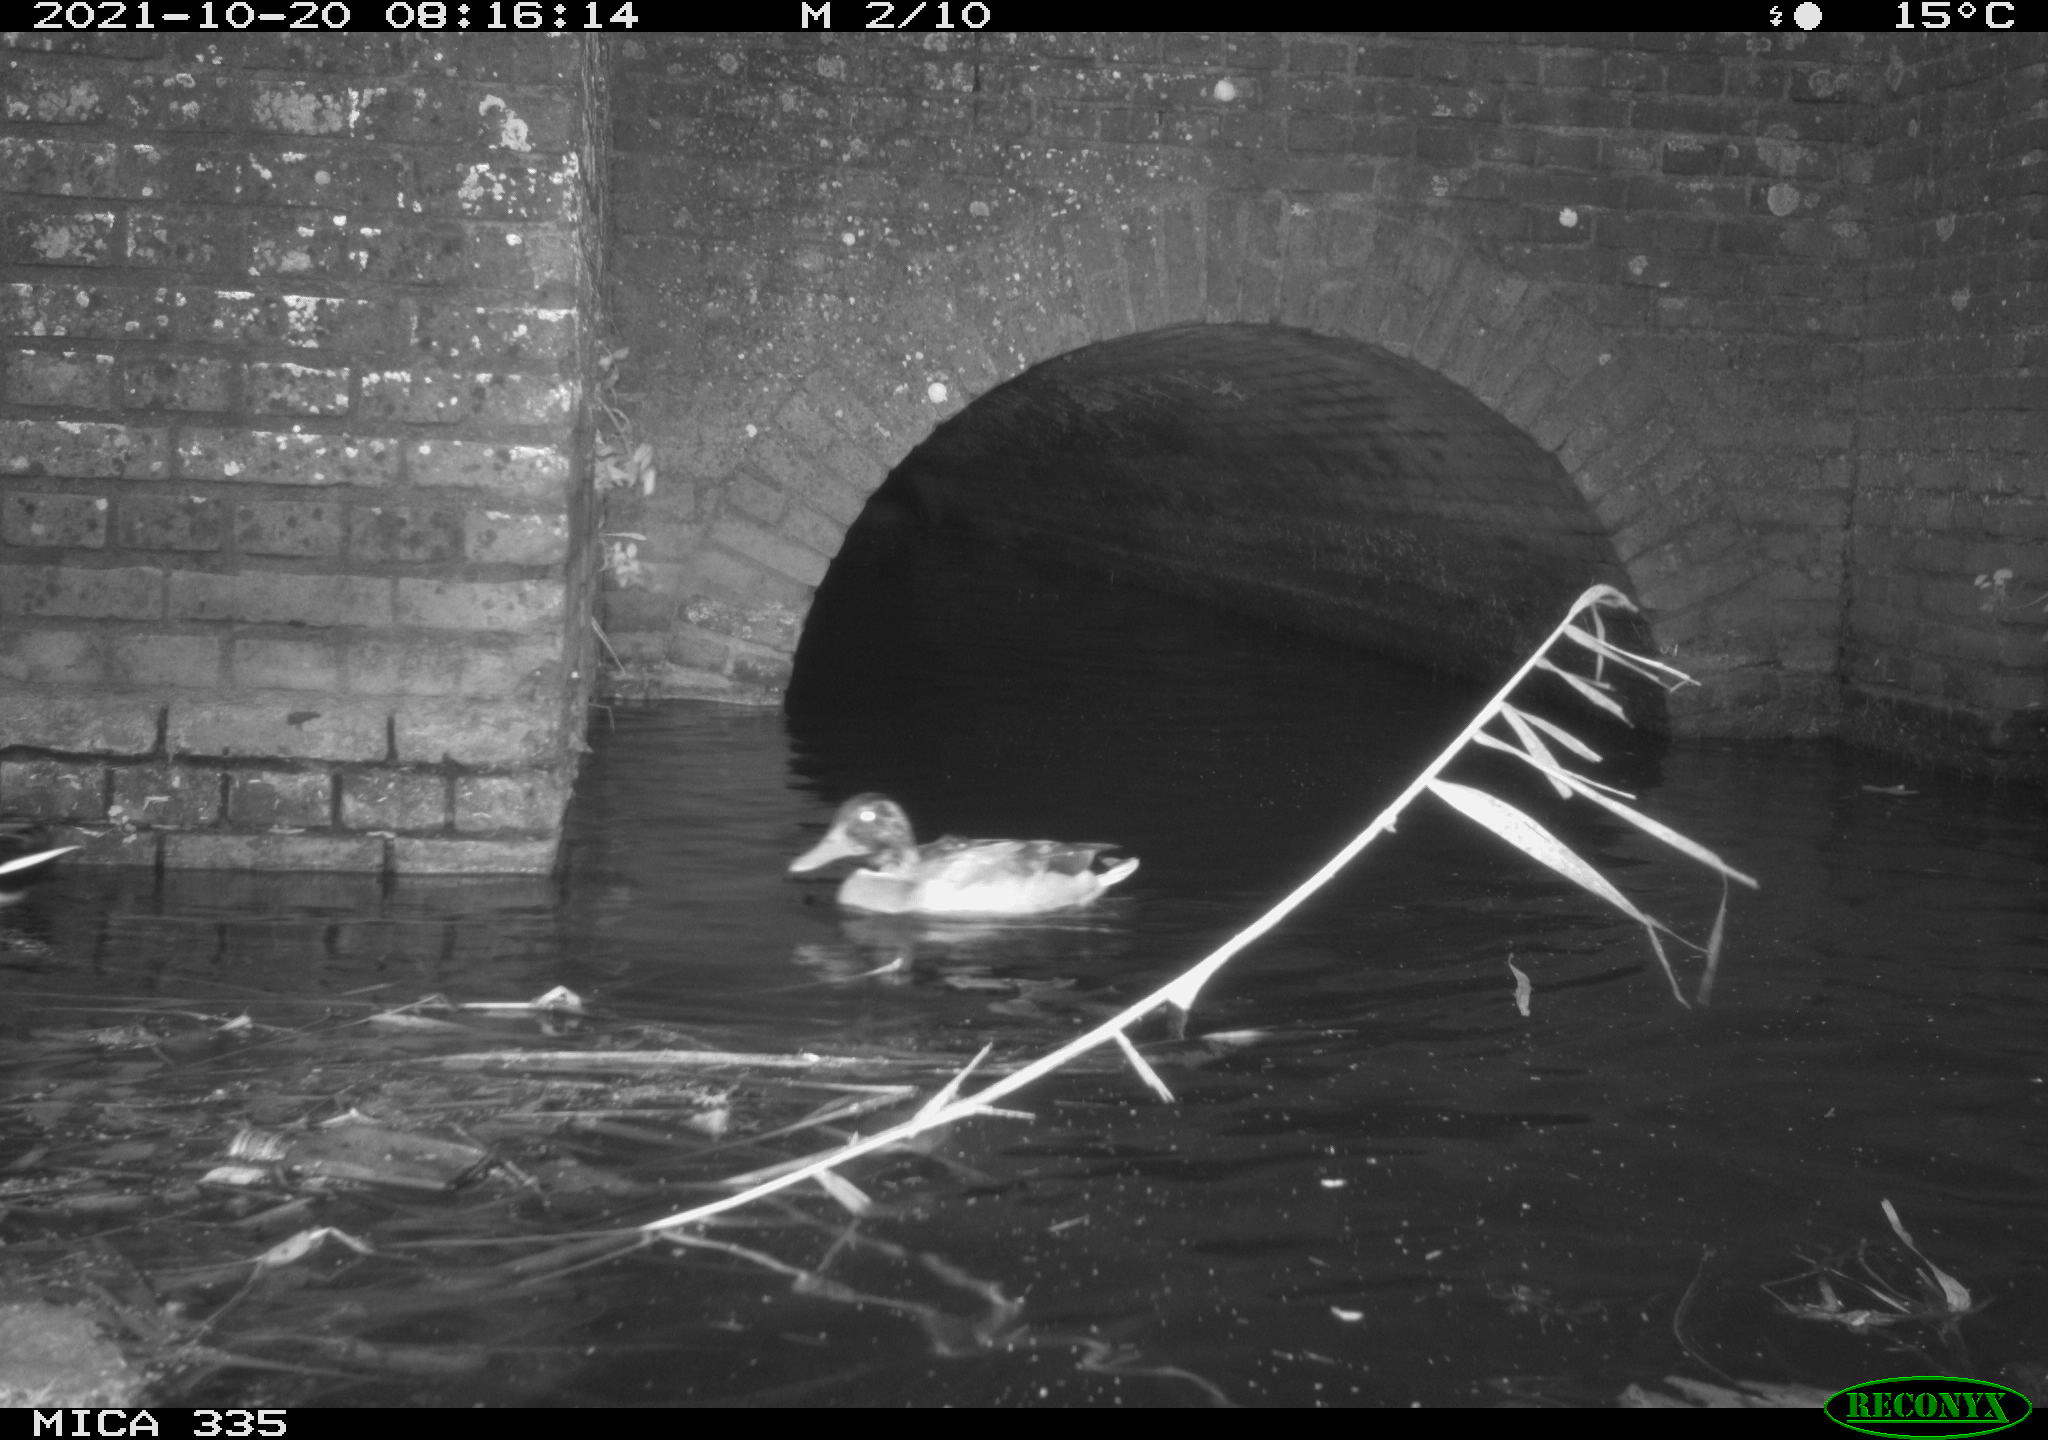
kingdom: Animalia
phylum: Chordata
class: Aves
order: Anseriformes
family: Anatidae
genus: Anas
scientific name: Anas platyrhynchos
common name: Mallard
